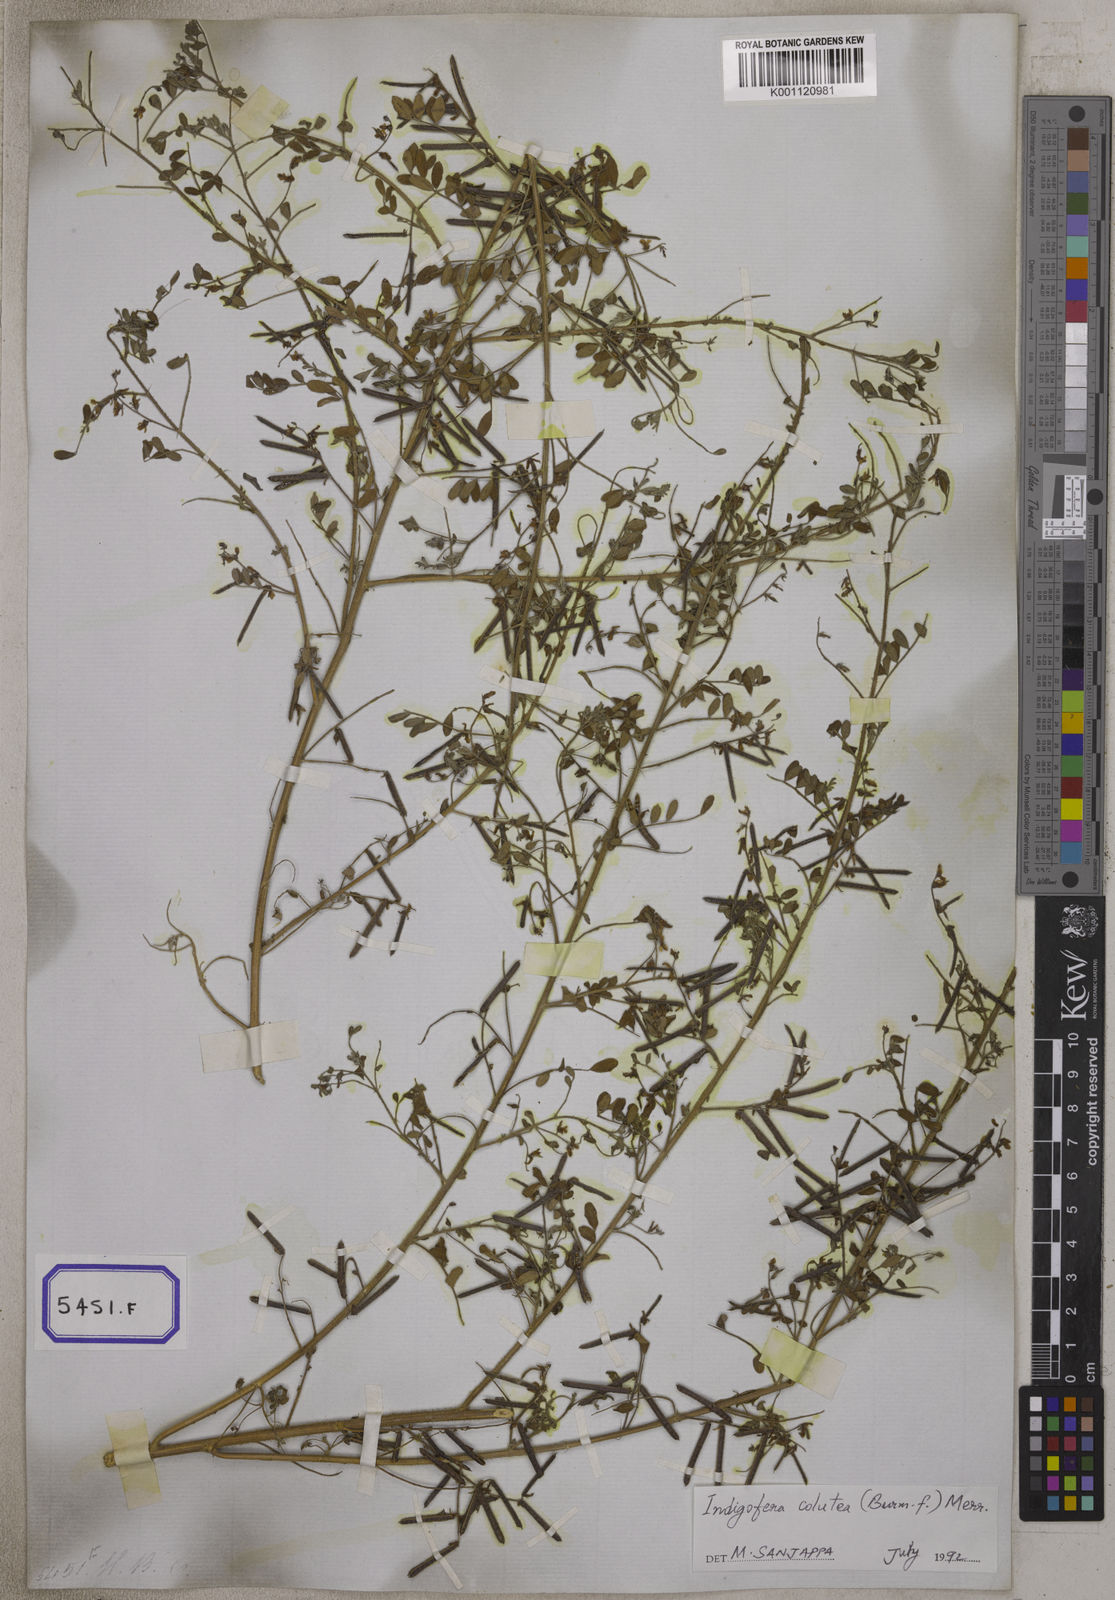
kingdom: Plantae
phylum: Tracheophyta
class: Magnoliopsida
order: Fabales
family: Fabaceae
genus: Indigofera
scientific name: Indigofera colutea
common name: Rusty indigo
